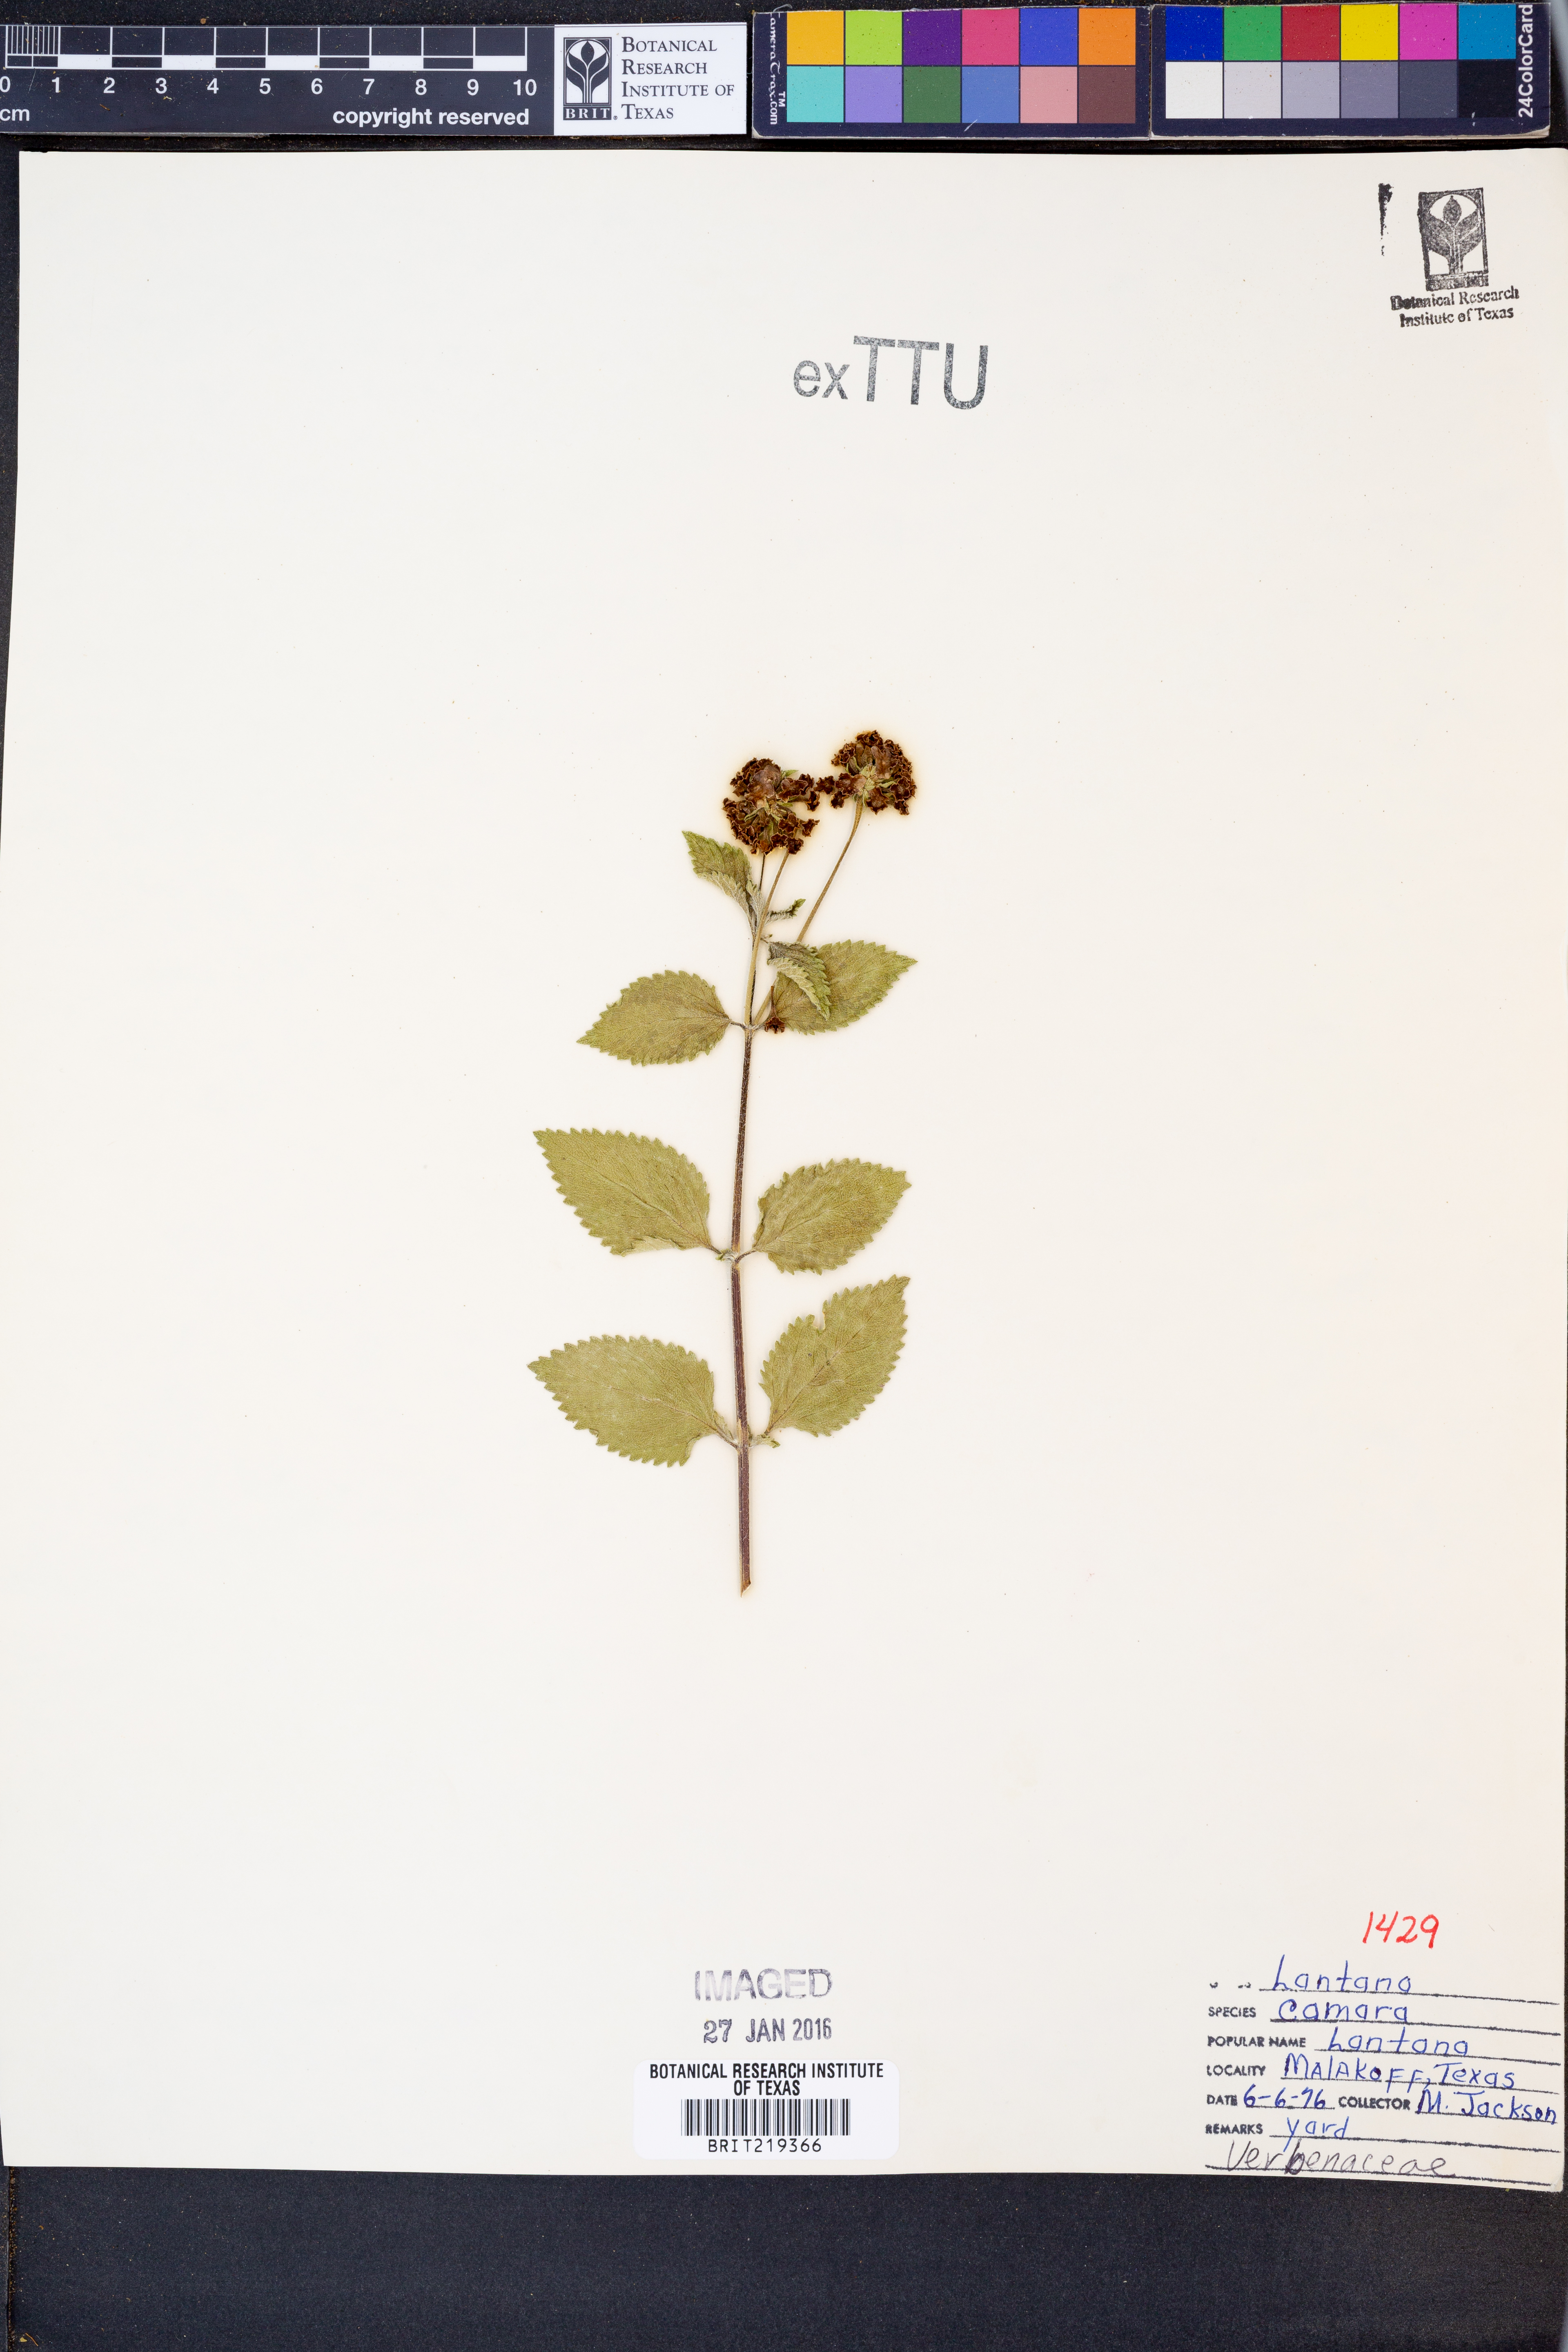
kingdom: Plantae
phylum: Tracheophyta
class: Magnoliopsida
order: Lamiales
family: Verbenaceae
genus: Lantana
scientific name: Lantana camara
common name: Lantana
